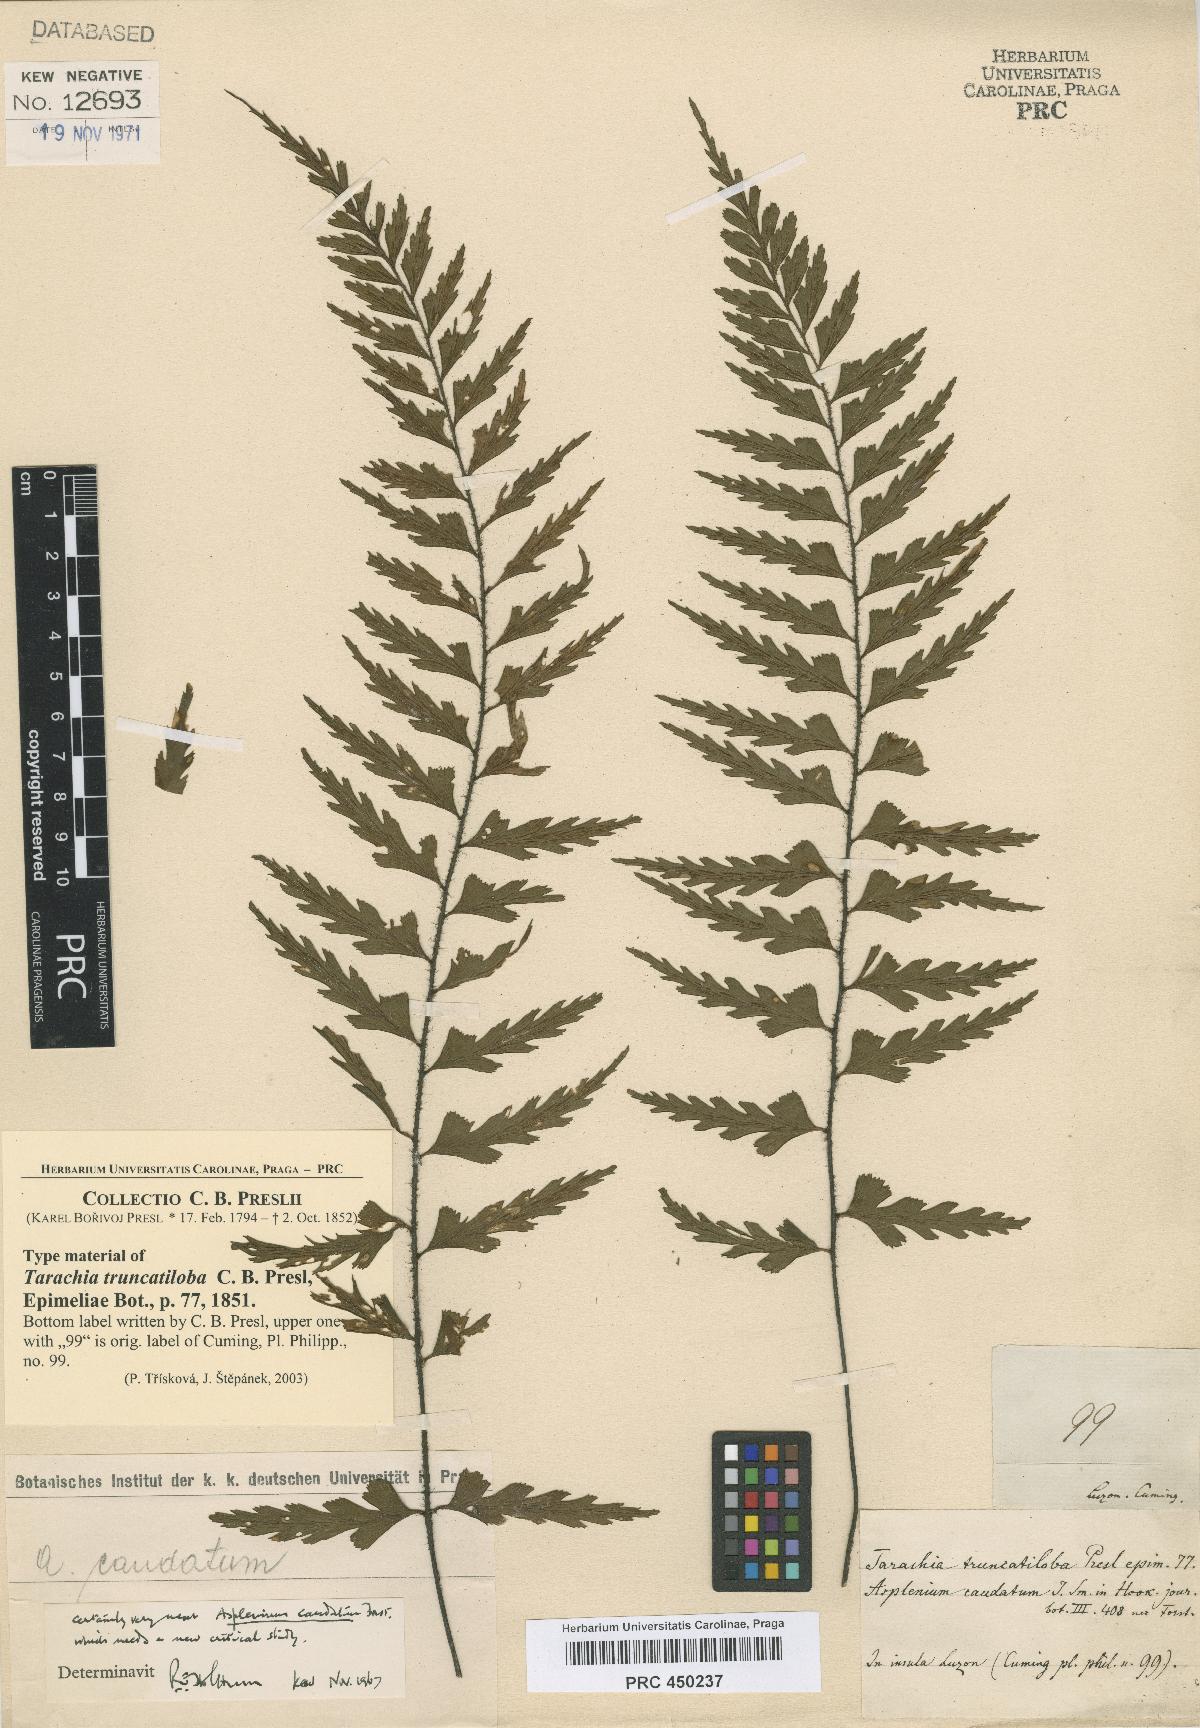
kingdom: Plantae
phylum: Tracheophyta
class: Polypodiopsida
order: Polypodiales
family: Aspleniaceae
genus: Asplenium
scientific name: Asplenium truncatilobum
